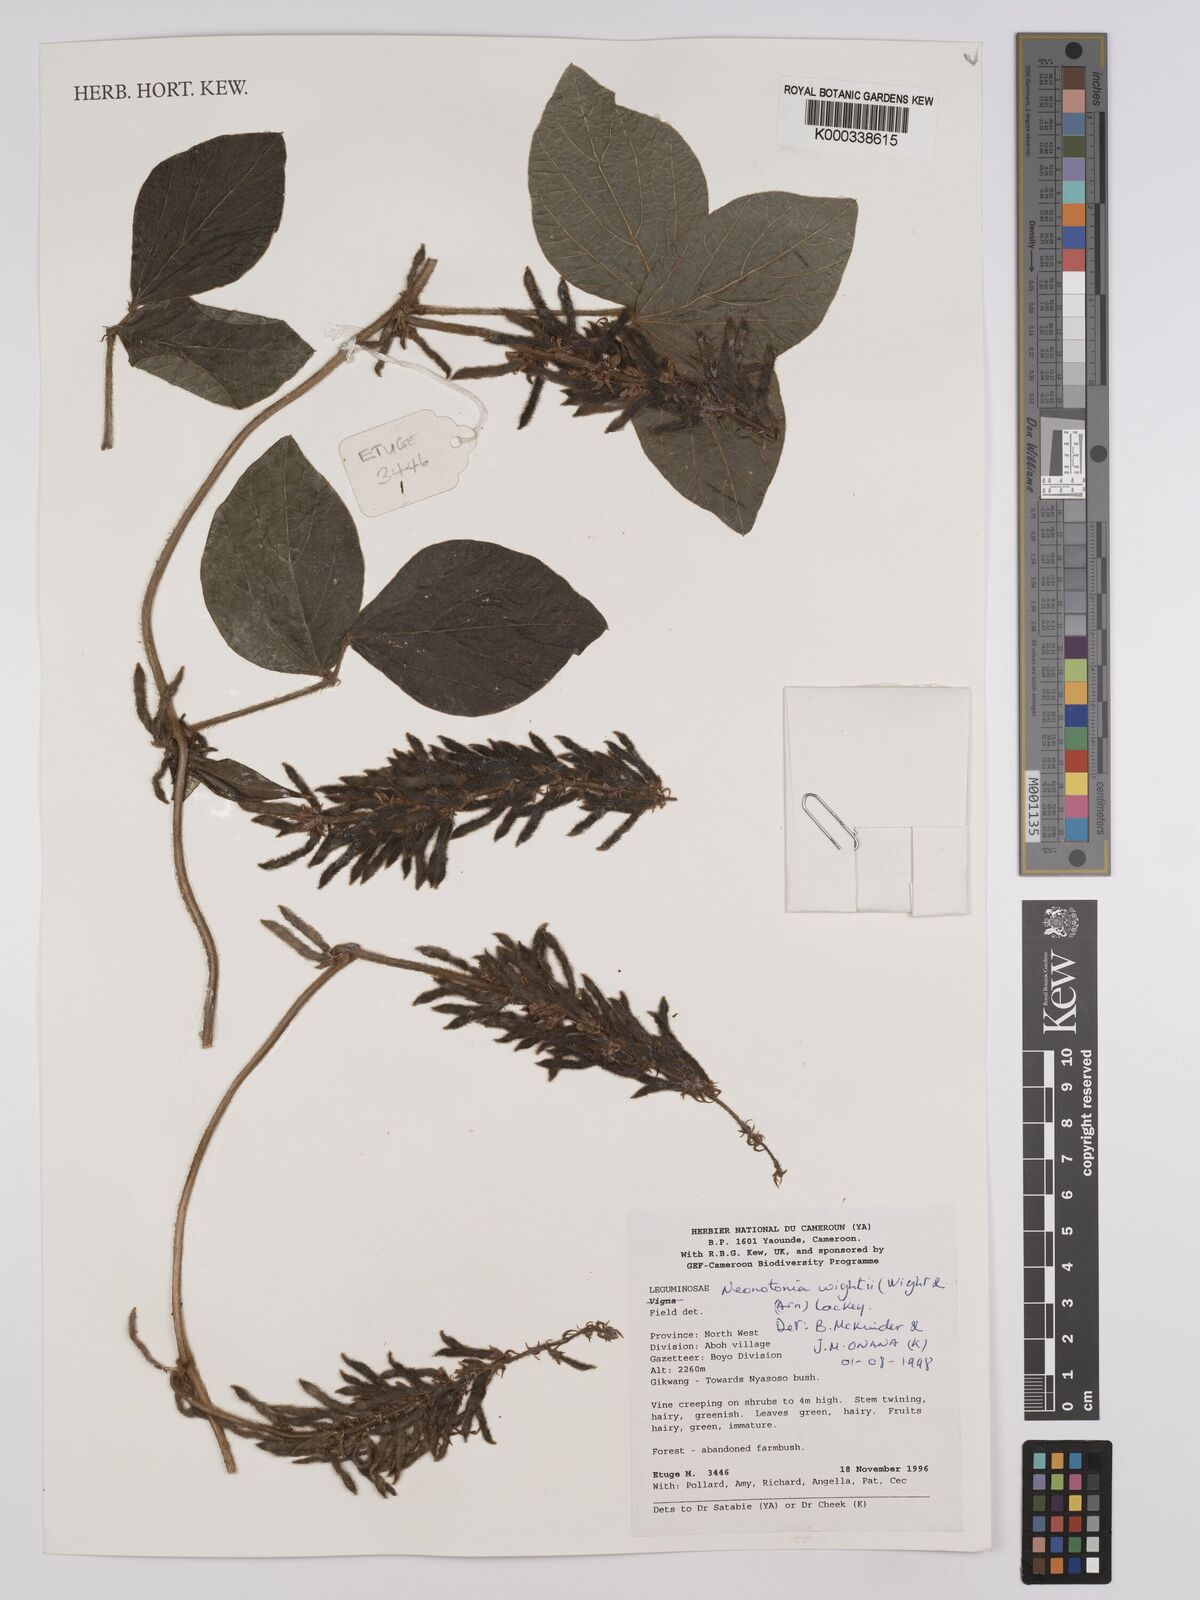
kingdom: Plantae
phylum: Tracheophyta
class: Magnoliopsida
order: Fabales
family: Fabaceae
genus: Neonotonia
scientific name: Neonotonia wightii
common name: Perennial soybean
